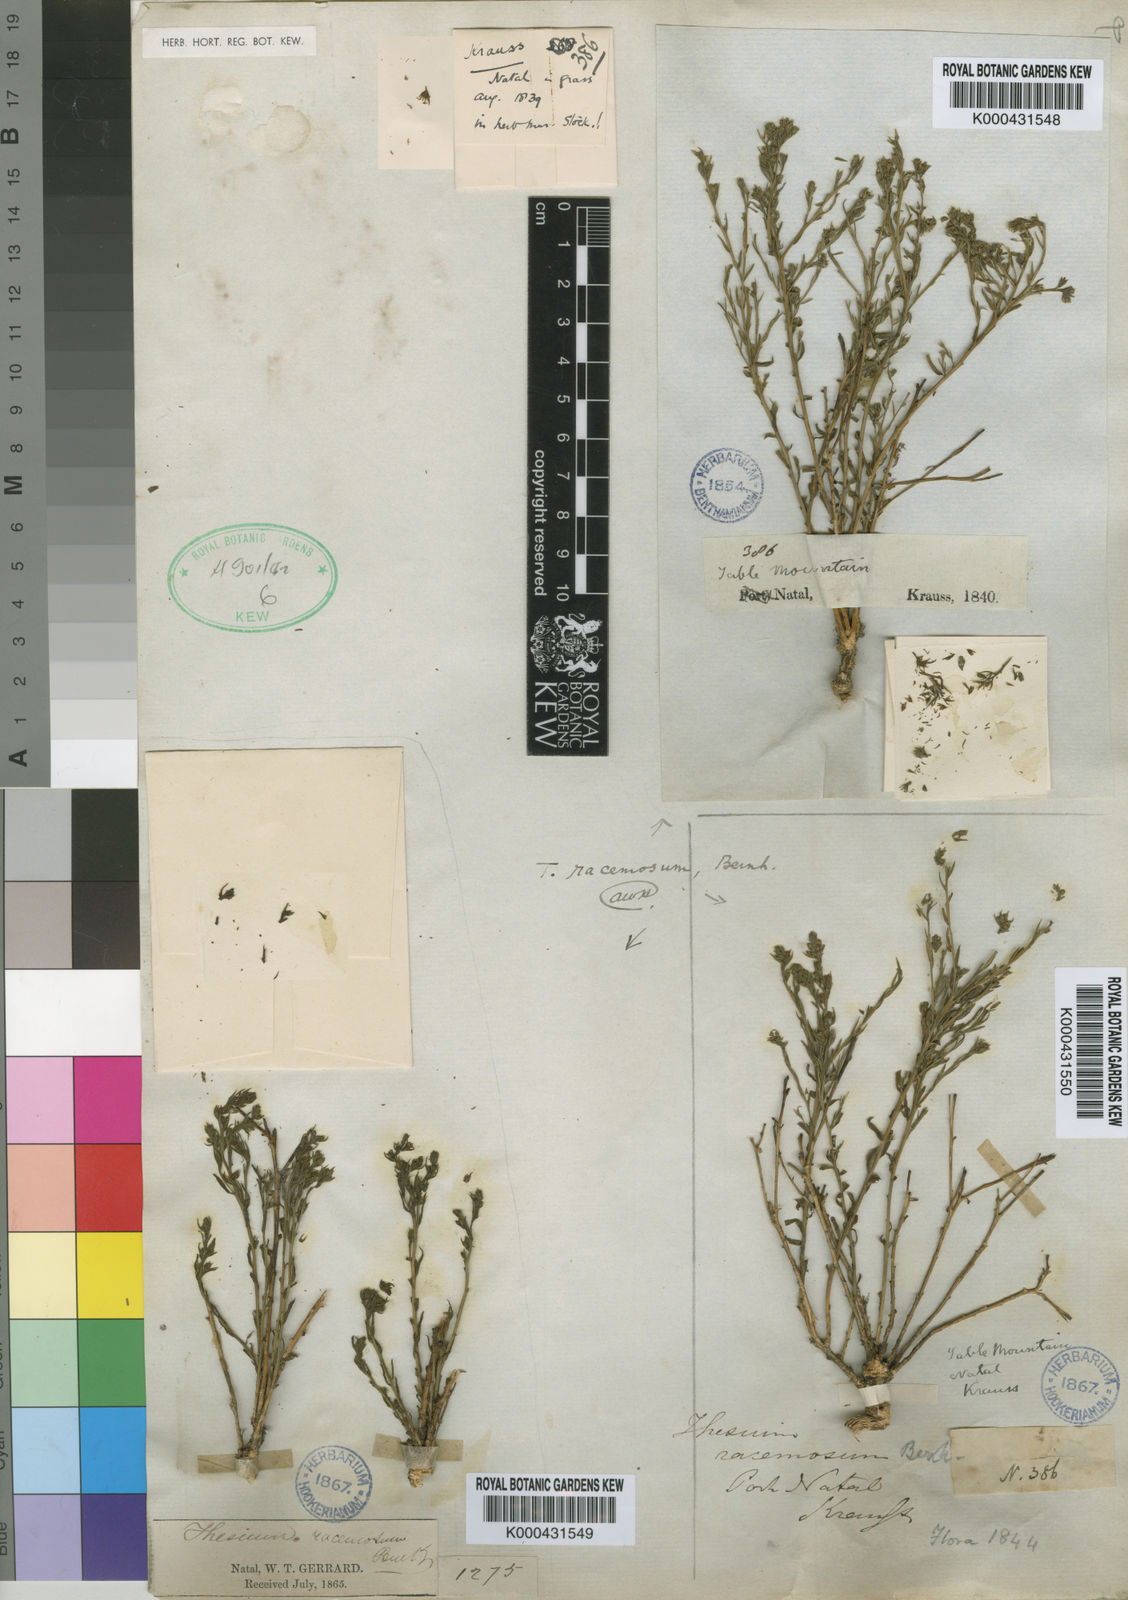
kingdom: Plantae
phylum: Tracheophyta
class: Magnoliopsida
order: Santalales
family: Thesiaceae
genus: Thesium
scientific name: Thesium racemosum
